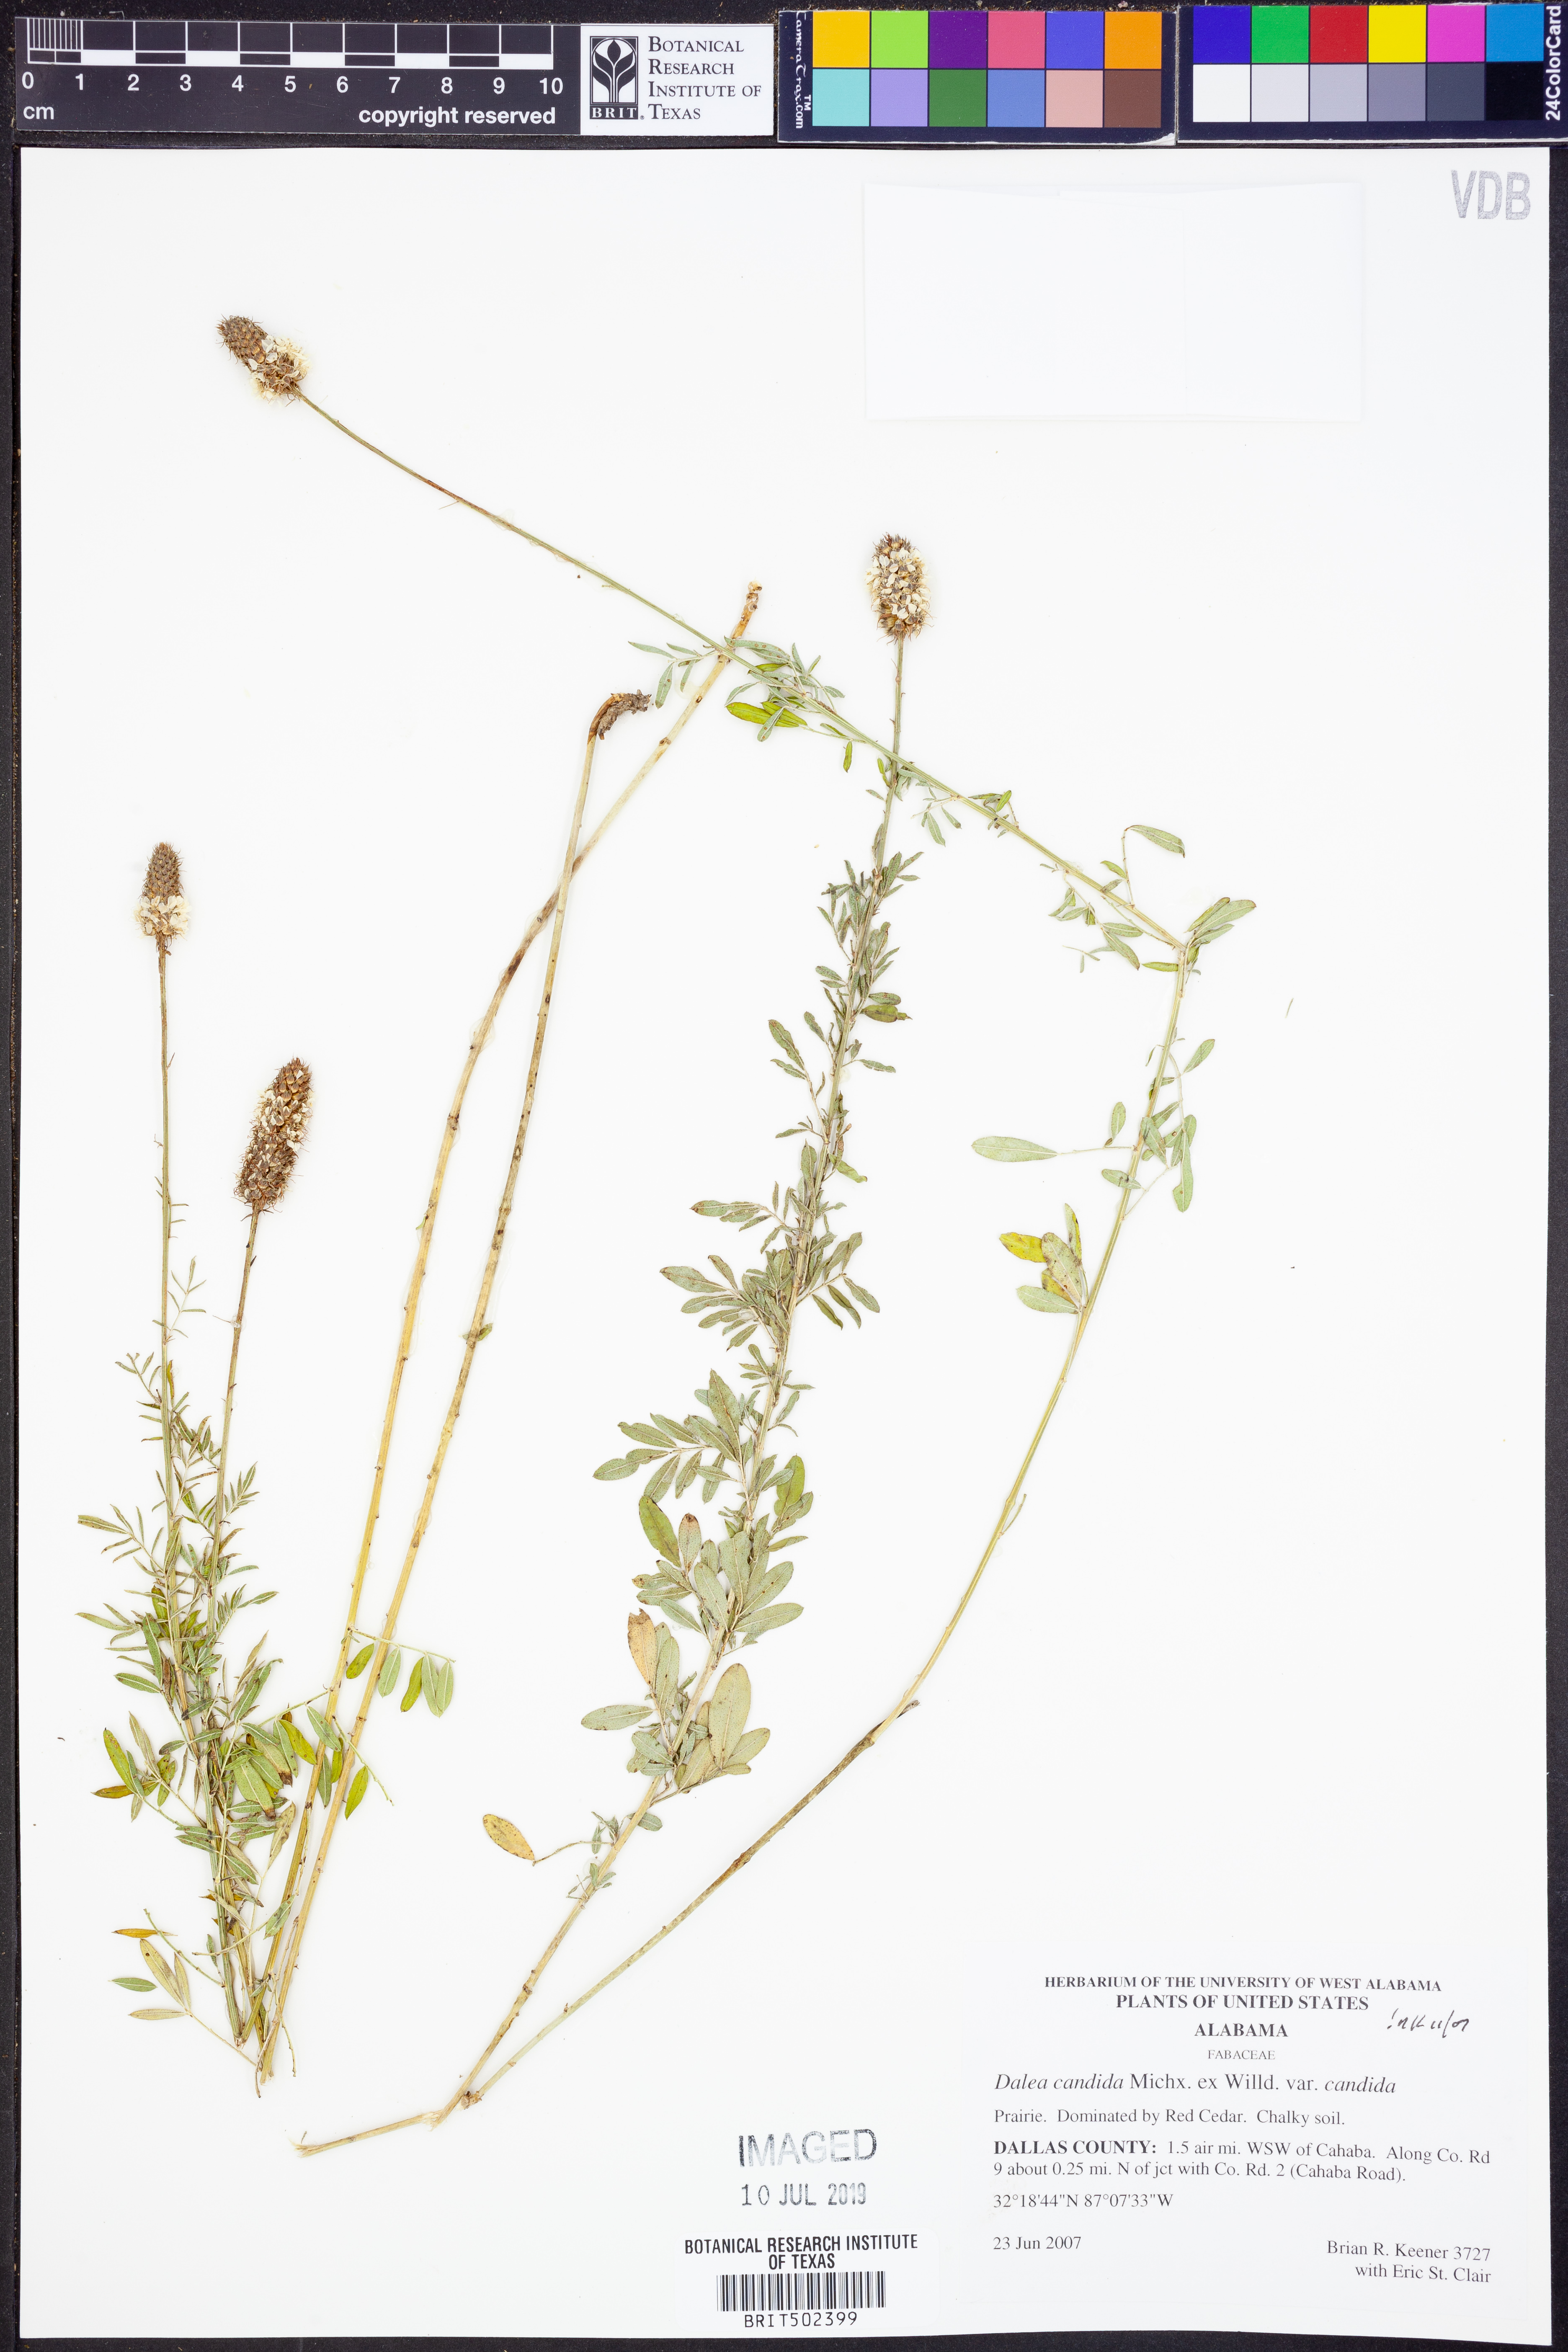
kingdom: Plantae
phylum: Tracheophyta
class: Magnoliopsida
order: Fabales
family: Fabaceae
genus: Dalea
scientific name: Dalea candida
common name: White prairie-clover
